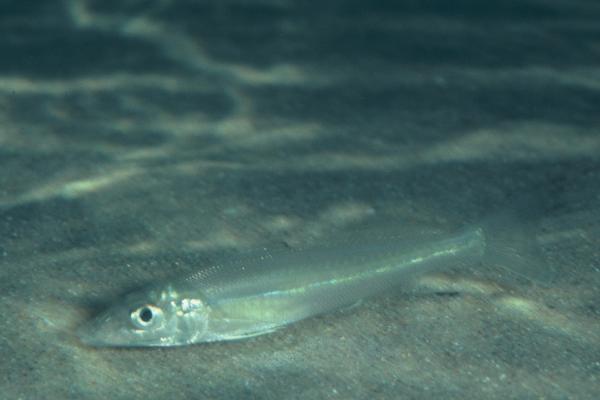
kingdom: Animalia
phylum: Chordata
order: Perciformes
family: Sillaginidae
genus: Sillago
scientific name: Sillago
